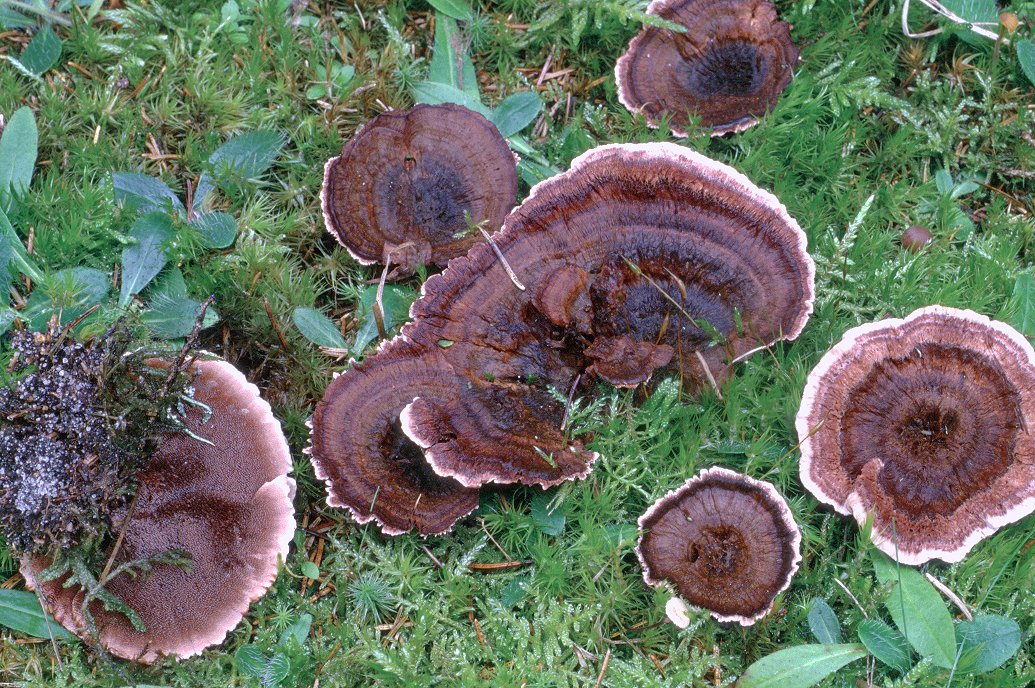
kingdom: Fungi
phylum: Basidiomycota
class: Agaricomycetes
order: Thelephorales
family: Bankeraceae
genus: Hydnellum
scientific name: Hydnellum concrescens
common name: bæltet korkpigsvamp
